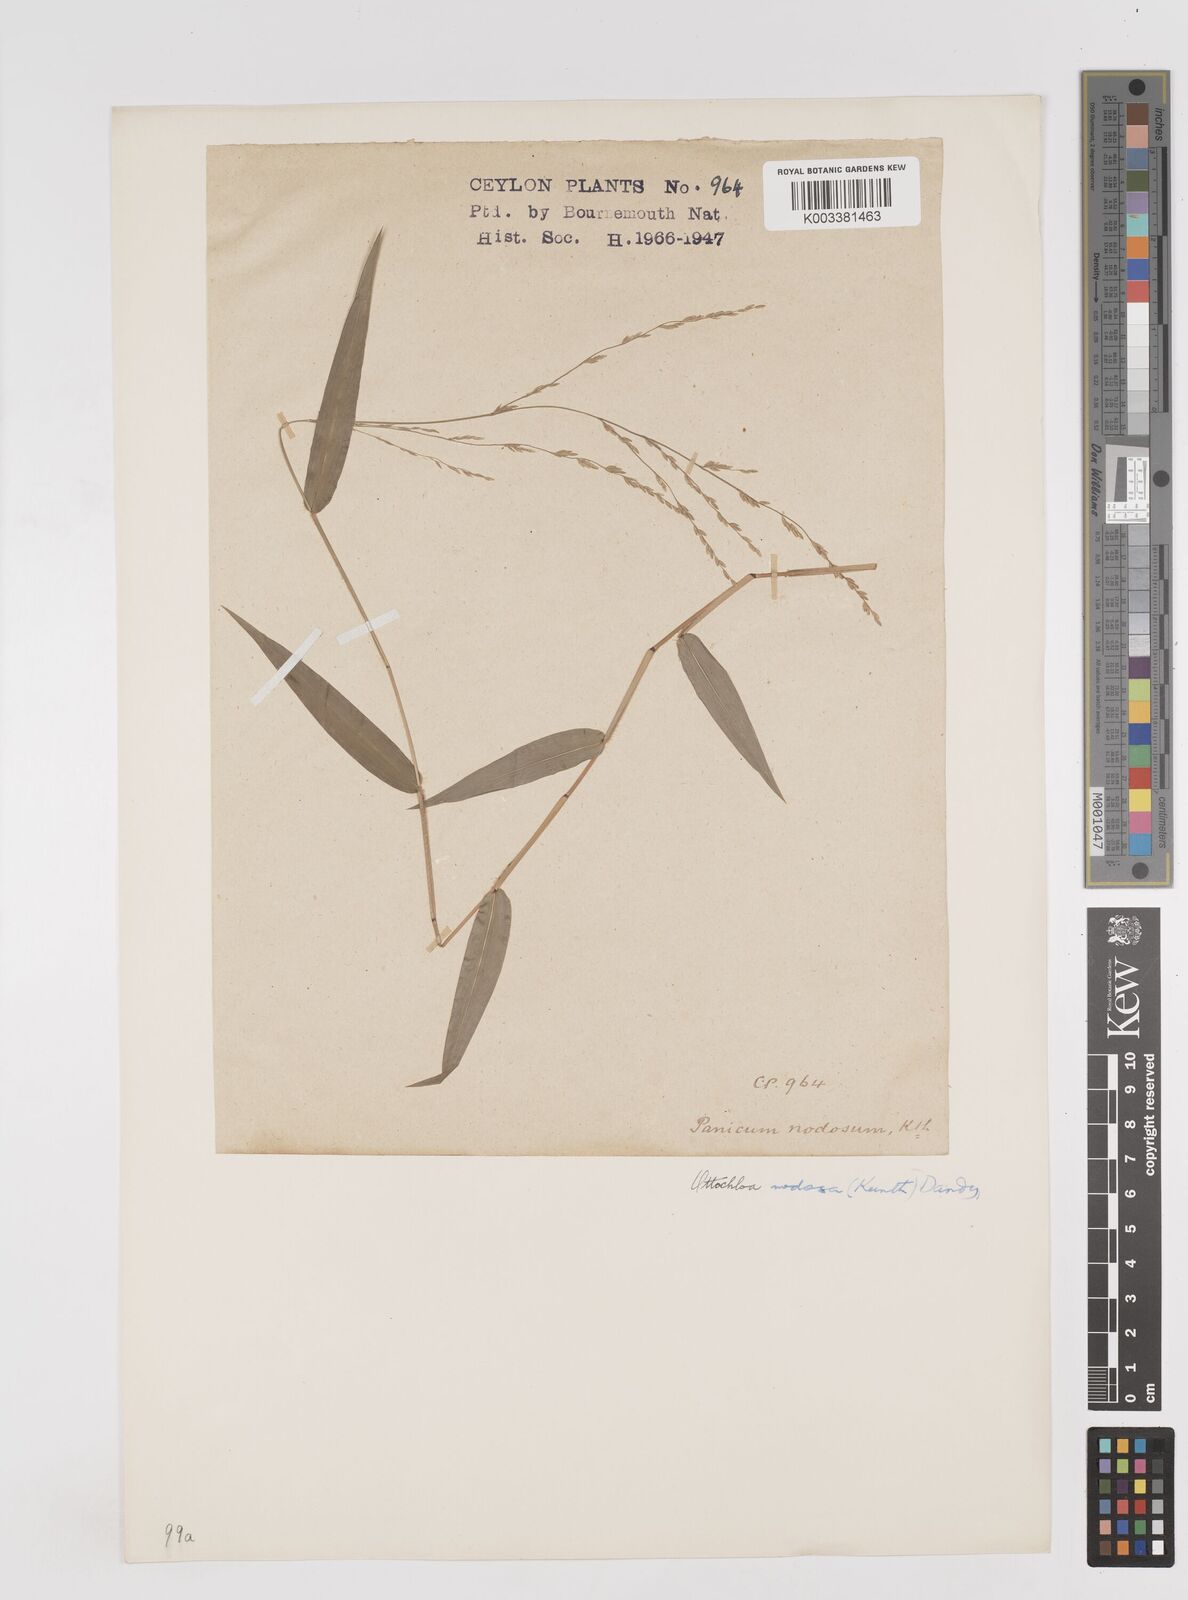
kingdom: Plantae
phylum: Tracheophyta
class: Liliopsida
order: Poales
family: Poaceae
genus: Ottochloa
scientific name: Ottochloa nodosa
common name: Slender-panic grass
